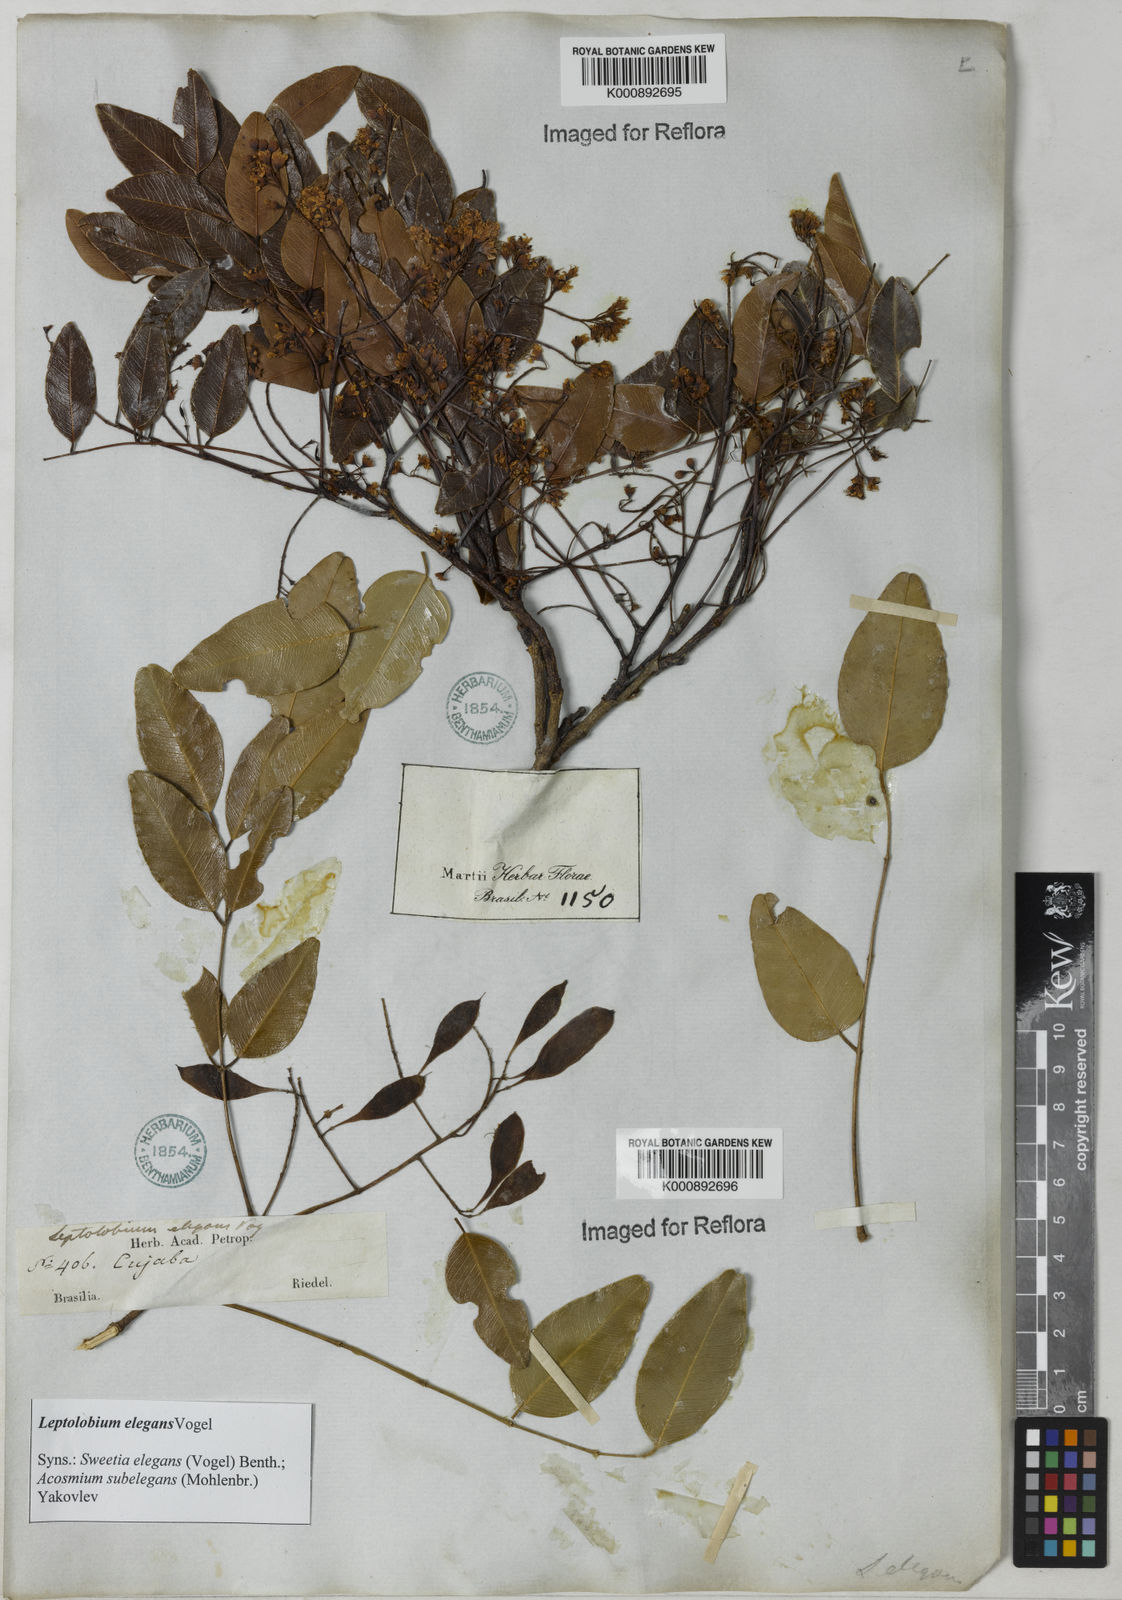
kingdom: Plantae
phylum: Tracheophyta
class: Magnoliopsida
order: Fabales
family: Fabaceae
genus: Leptolobium
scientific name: Leptolobium elegans
